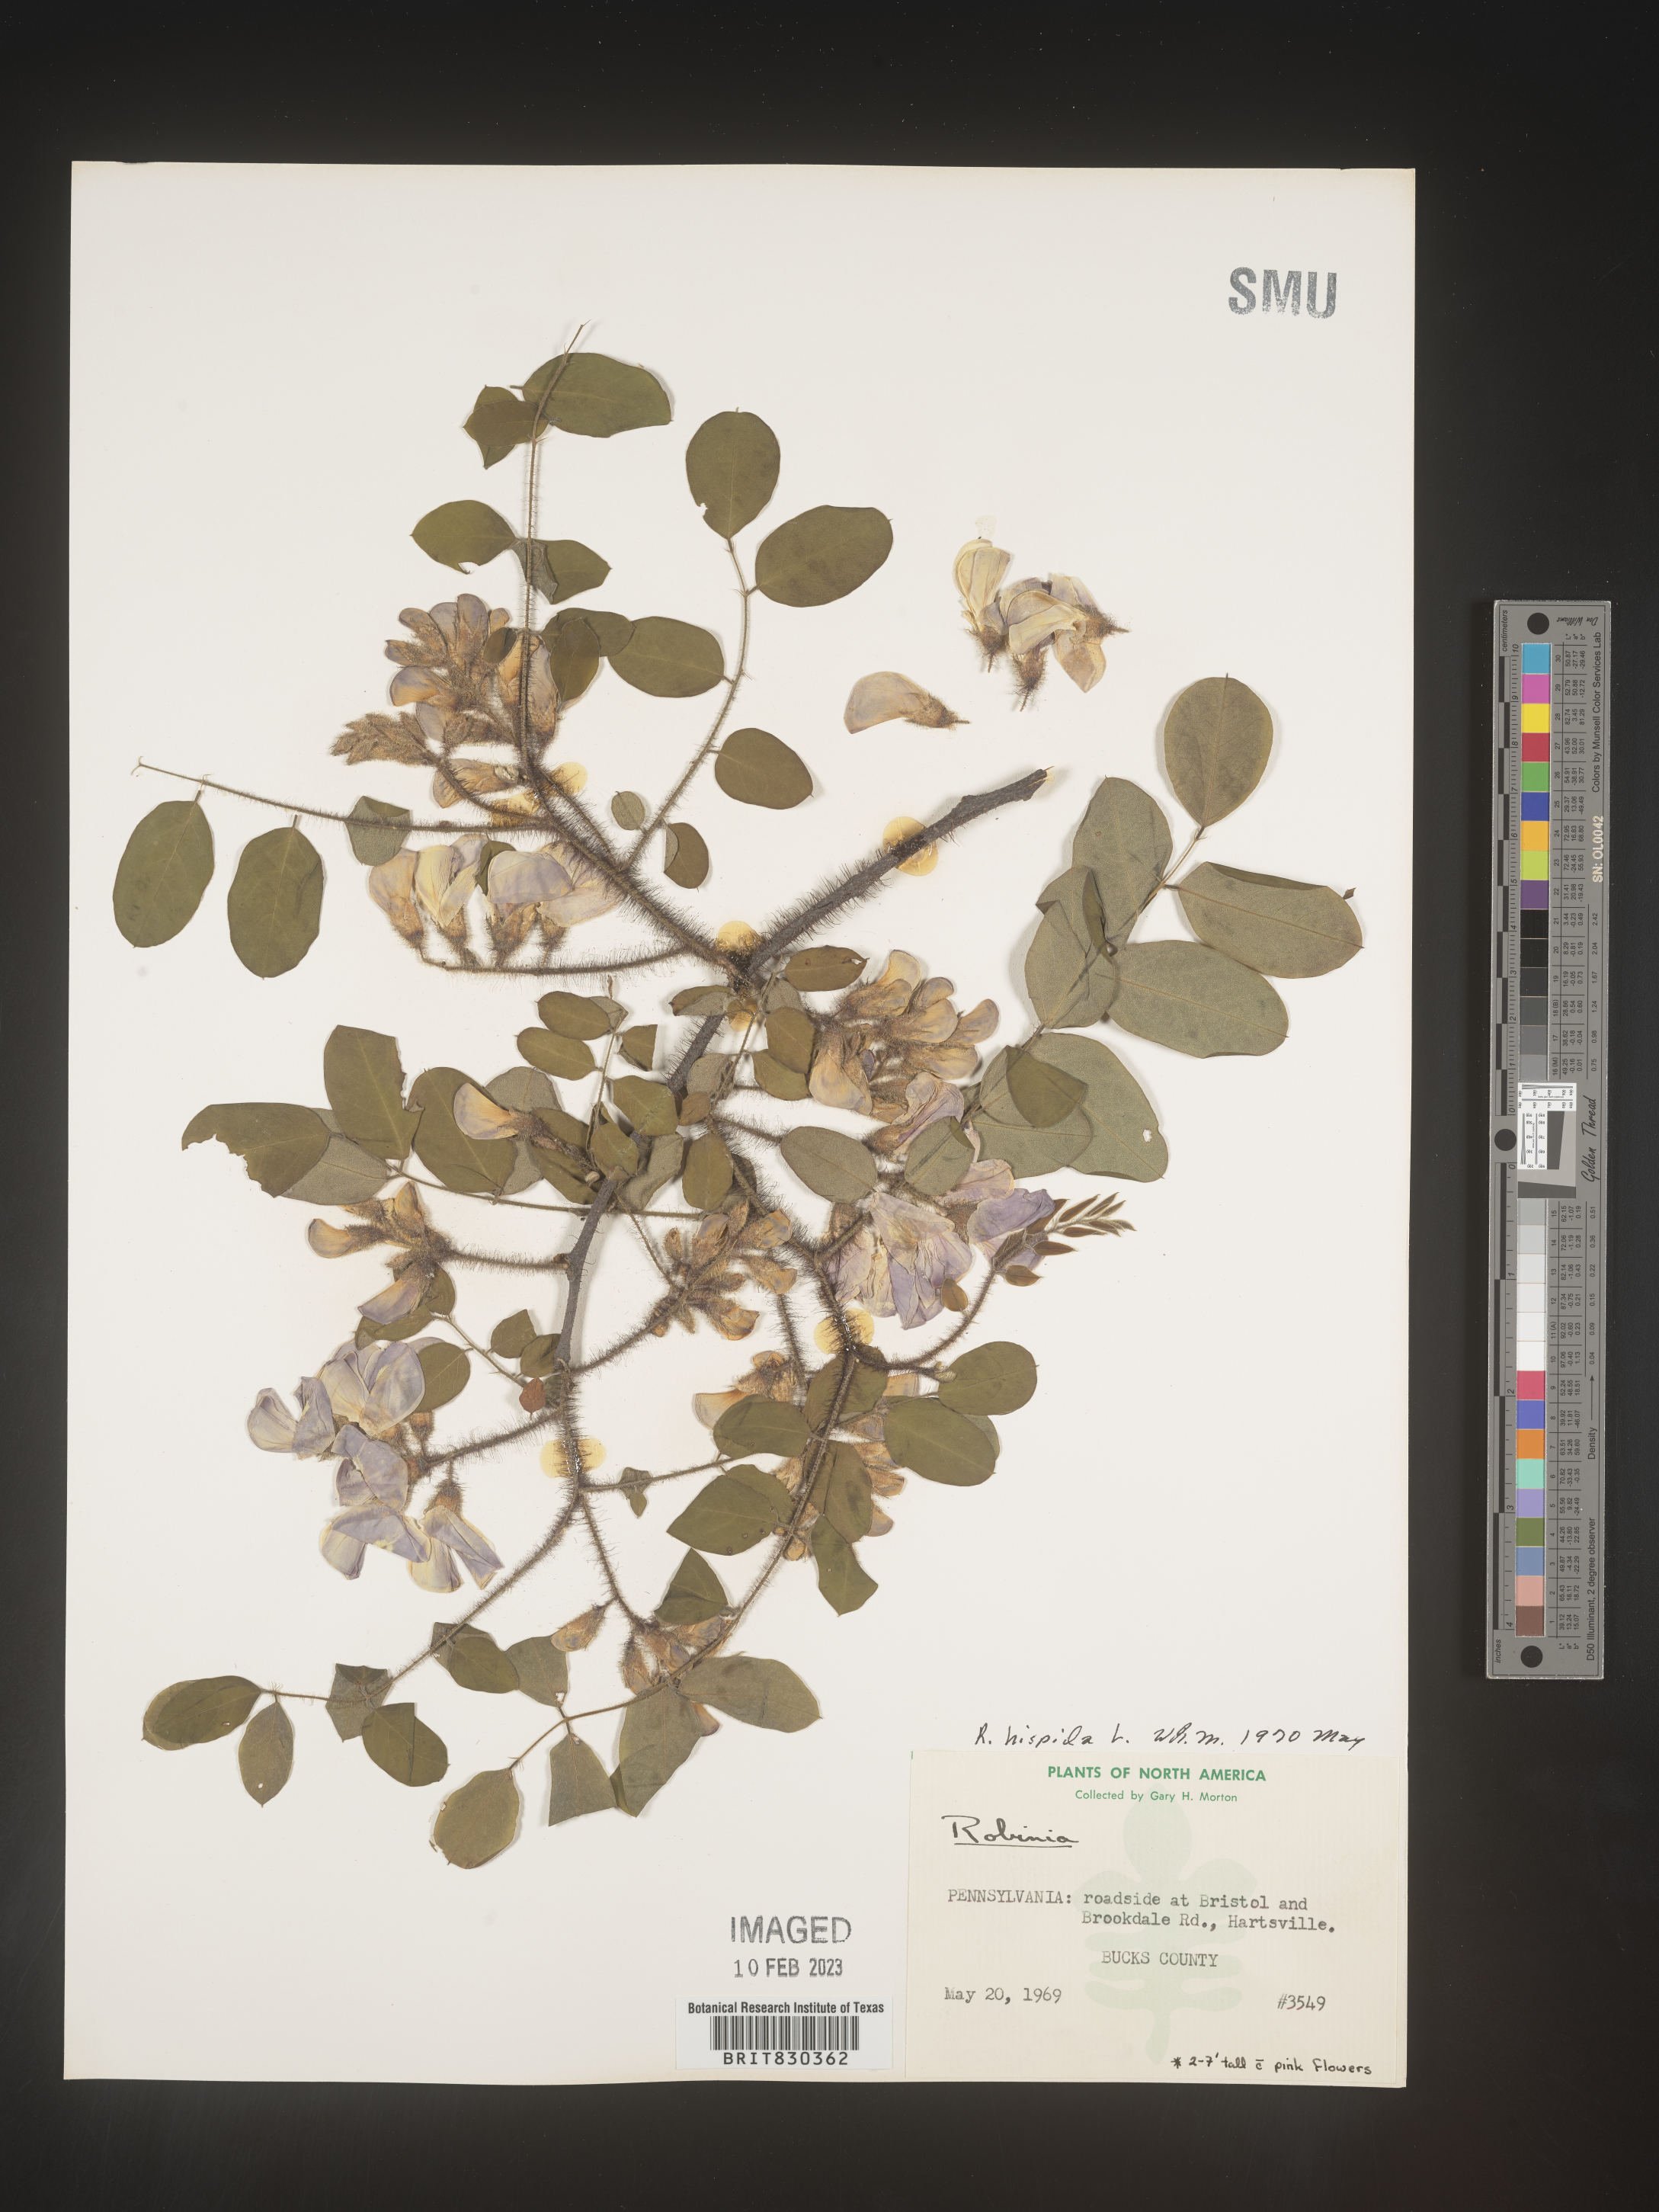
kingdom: Plantae
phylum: Tracheophyta
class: Magnoliopsida
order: Fabales
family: Fabaceae
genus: Robinia
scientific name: Robinia hispida
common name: Bristly locust
